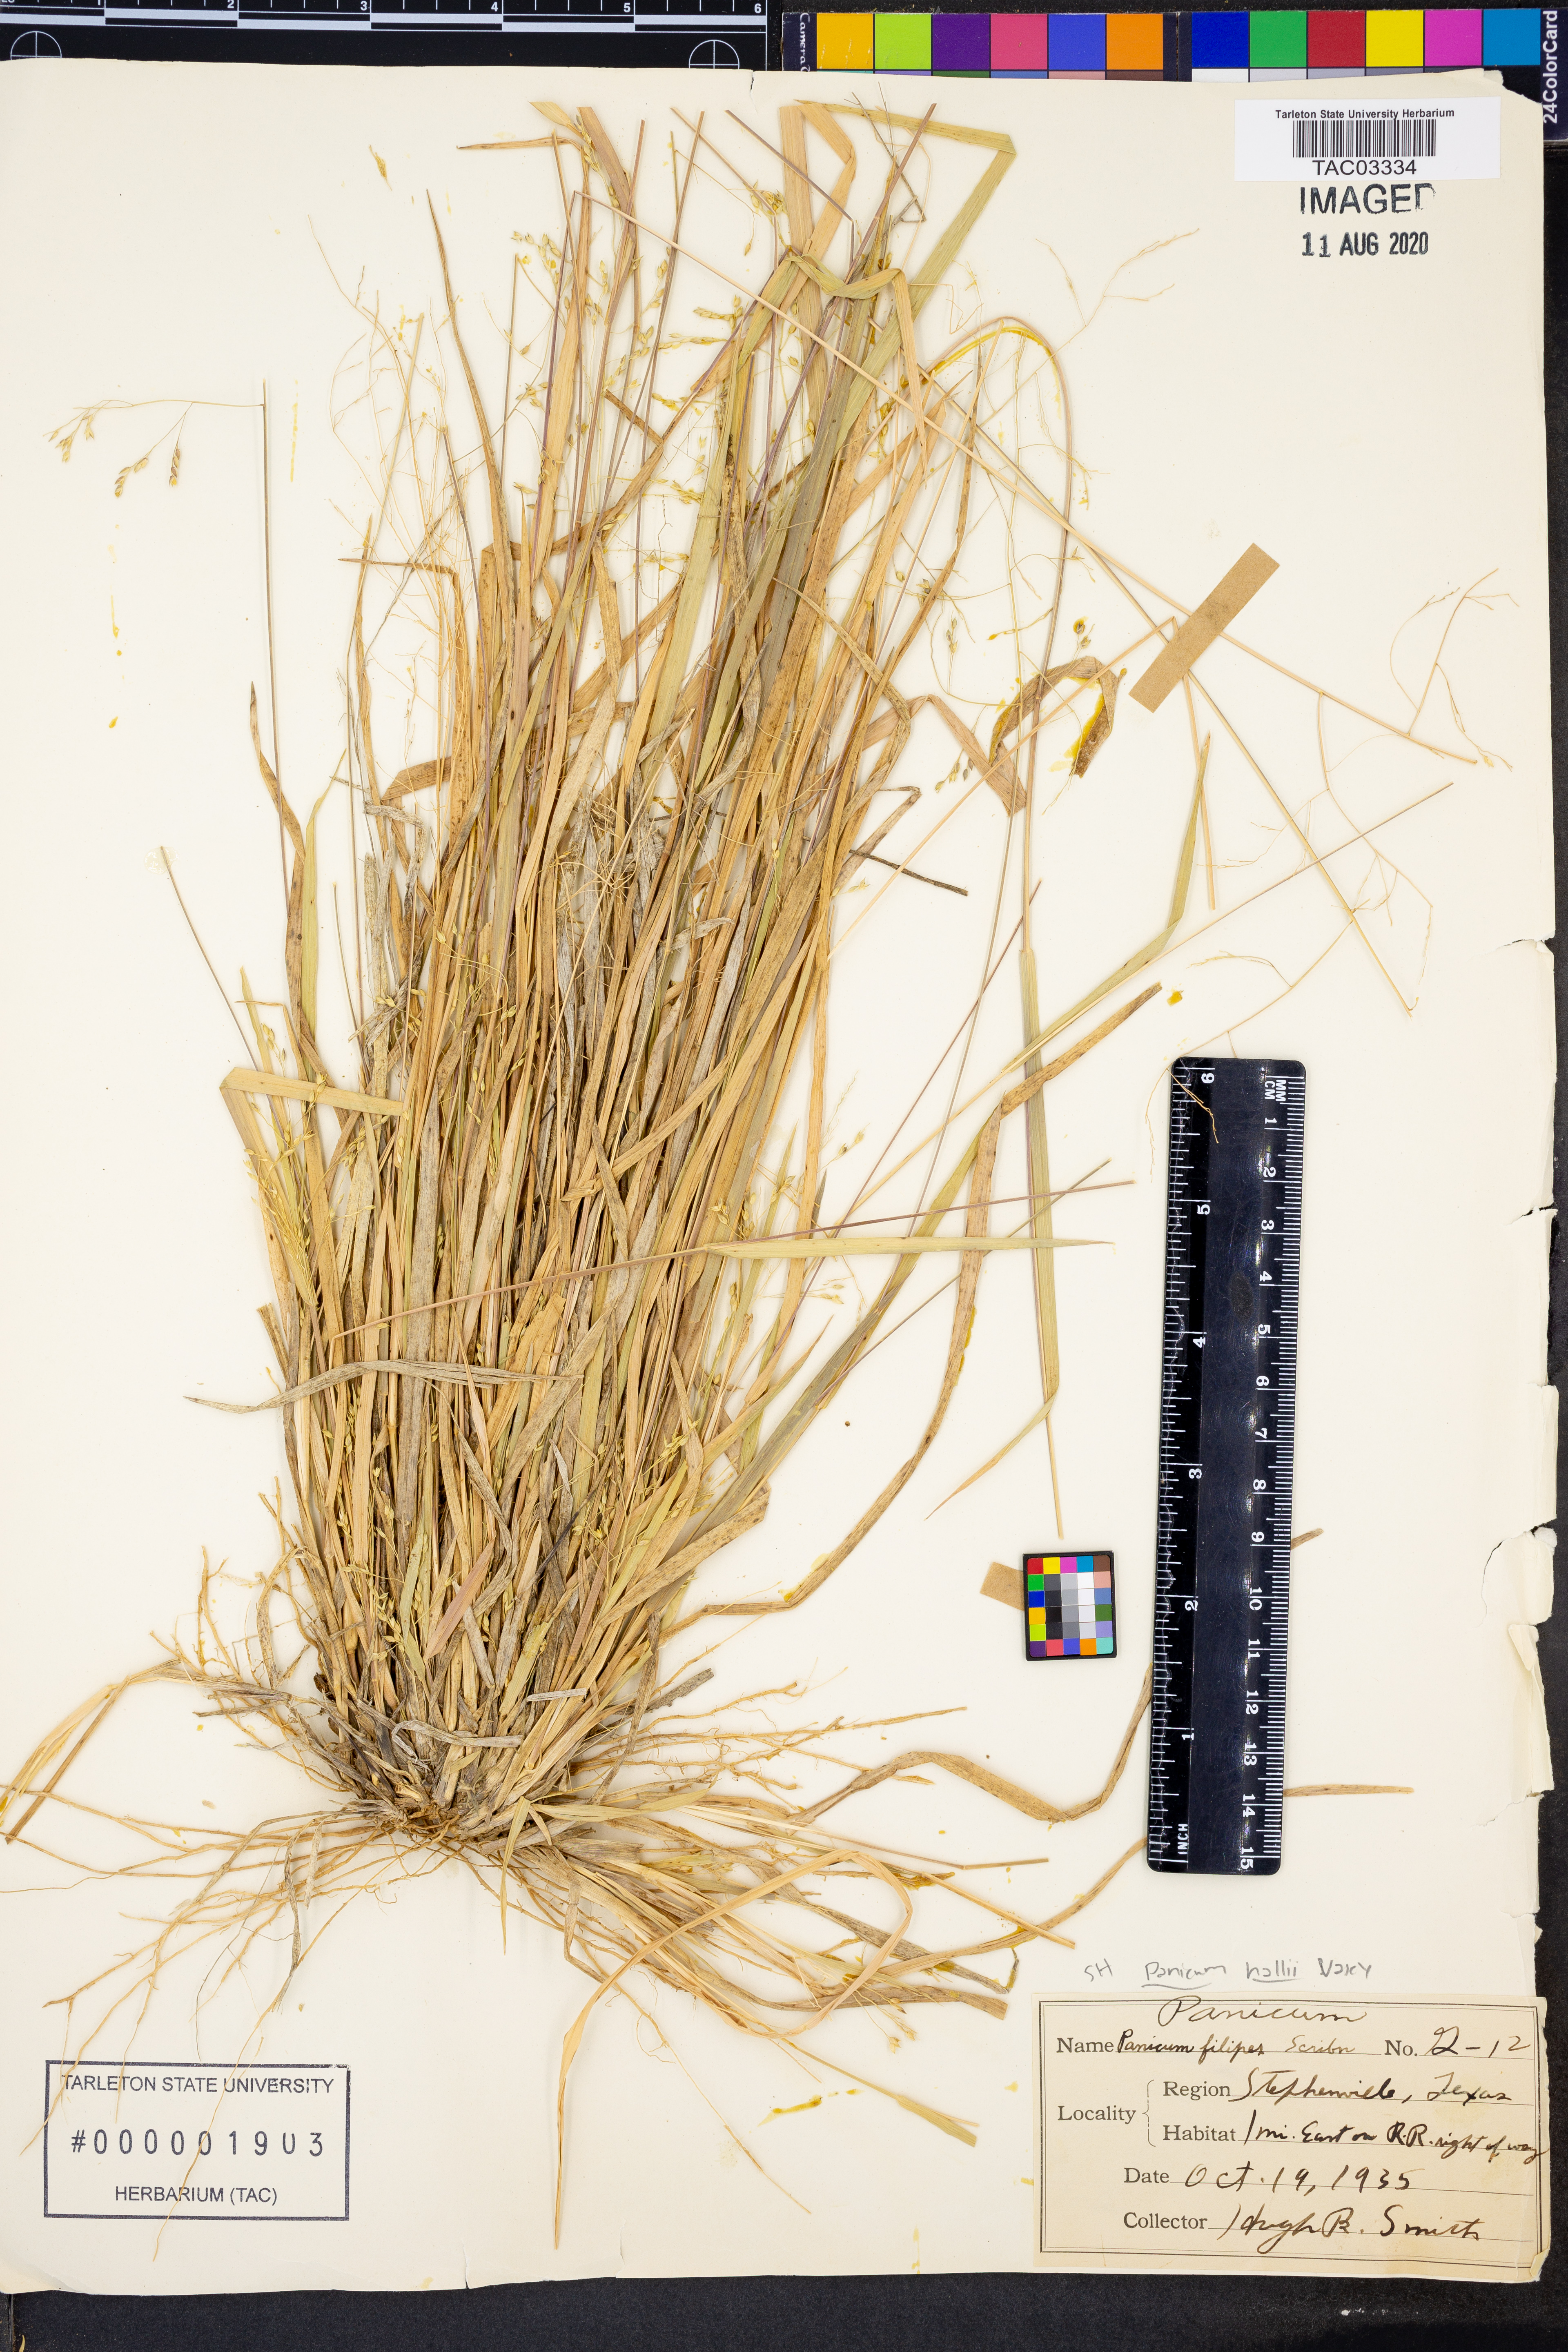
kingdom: Plantae
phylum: Tracheophyta
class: Liliopsida
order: Poales
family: Poaceae
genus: Panicum
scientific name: Panicum hallii
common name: Hall's witchgrass
